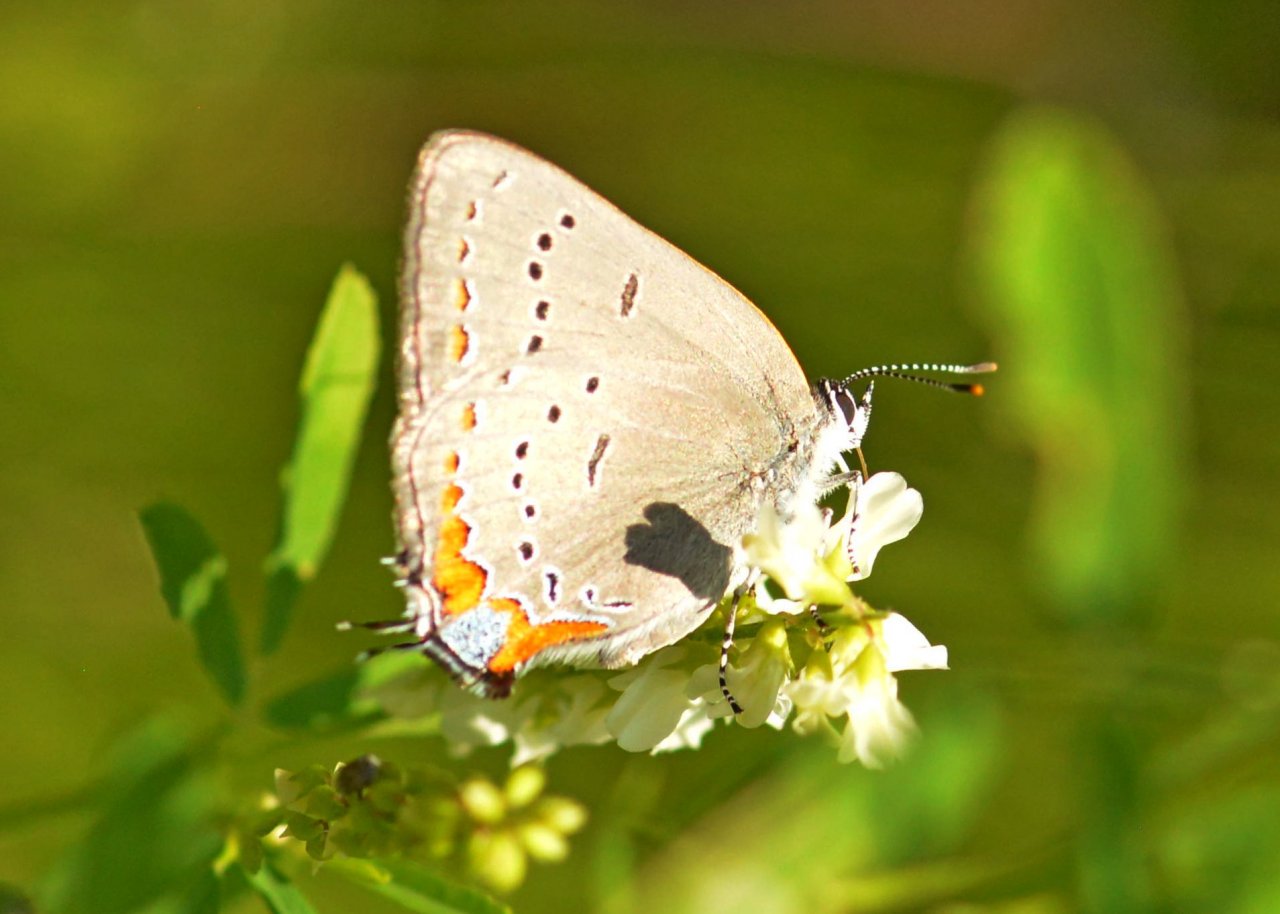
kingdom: Animalia
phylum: Arthropoda
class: Insecta
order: Lepidoptera
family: Lycaenidae
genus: Strymon
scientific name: Strymon acadica
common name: Acadian Hairstreak
